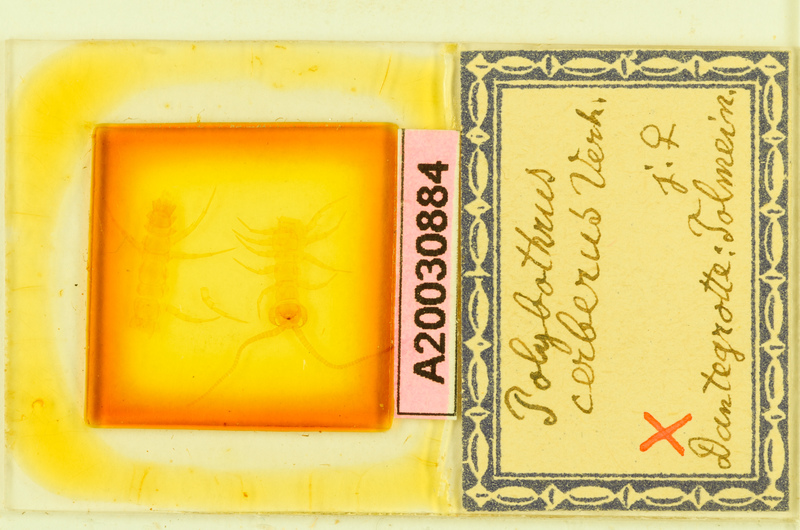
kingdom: Animalia
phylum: Arthropoda
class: Chilopoda
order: Lithobiomorpha
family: Lithobiidae
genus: Polybothrus
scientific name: Polybothrus cerberus
